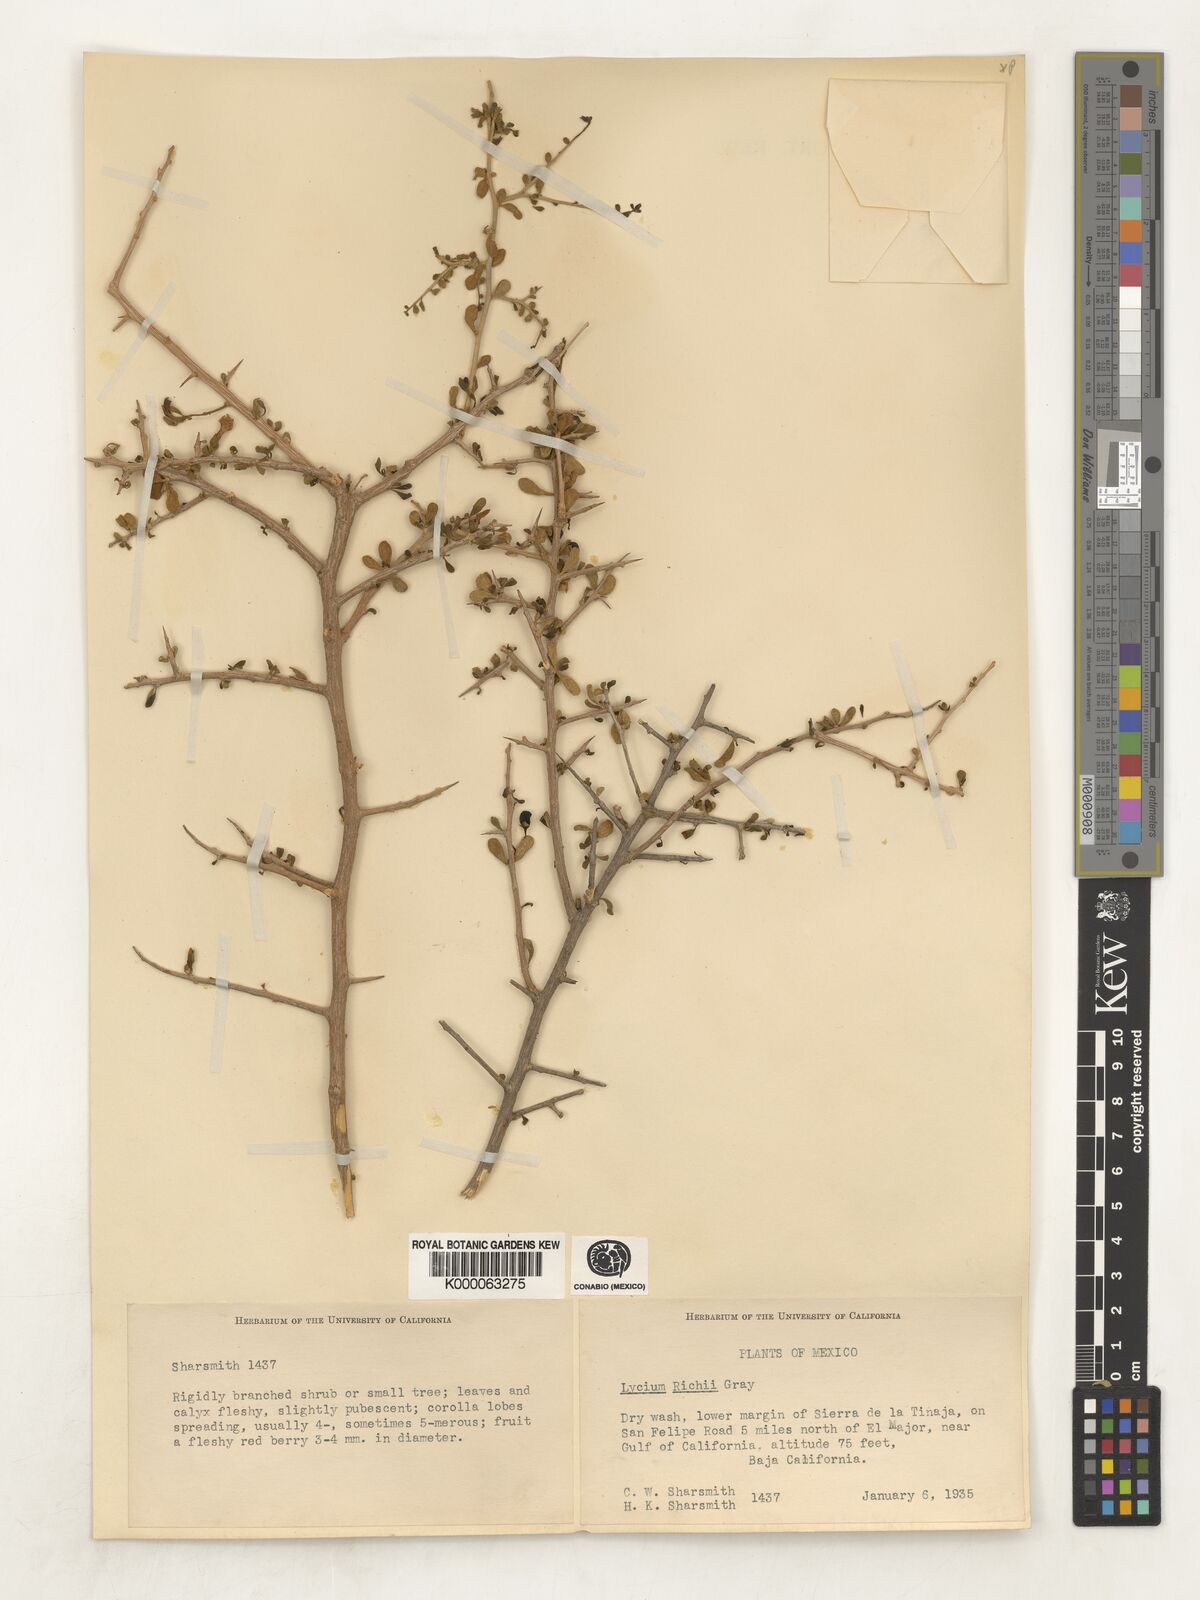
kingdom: Plantae
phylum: Tracheophyta
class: Magnoliopsida
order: Solanales
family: Solanaceae
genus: Lycium
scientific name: Lycium brevipes
